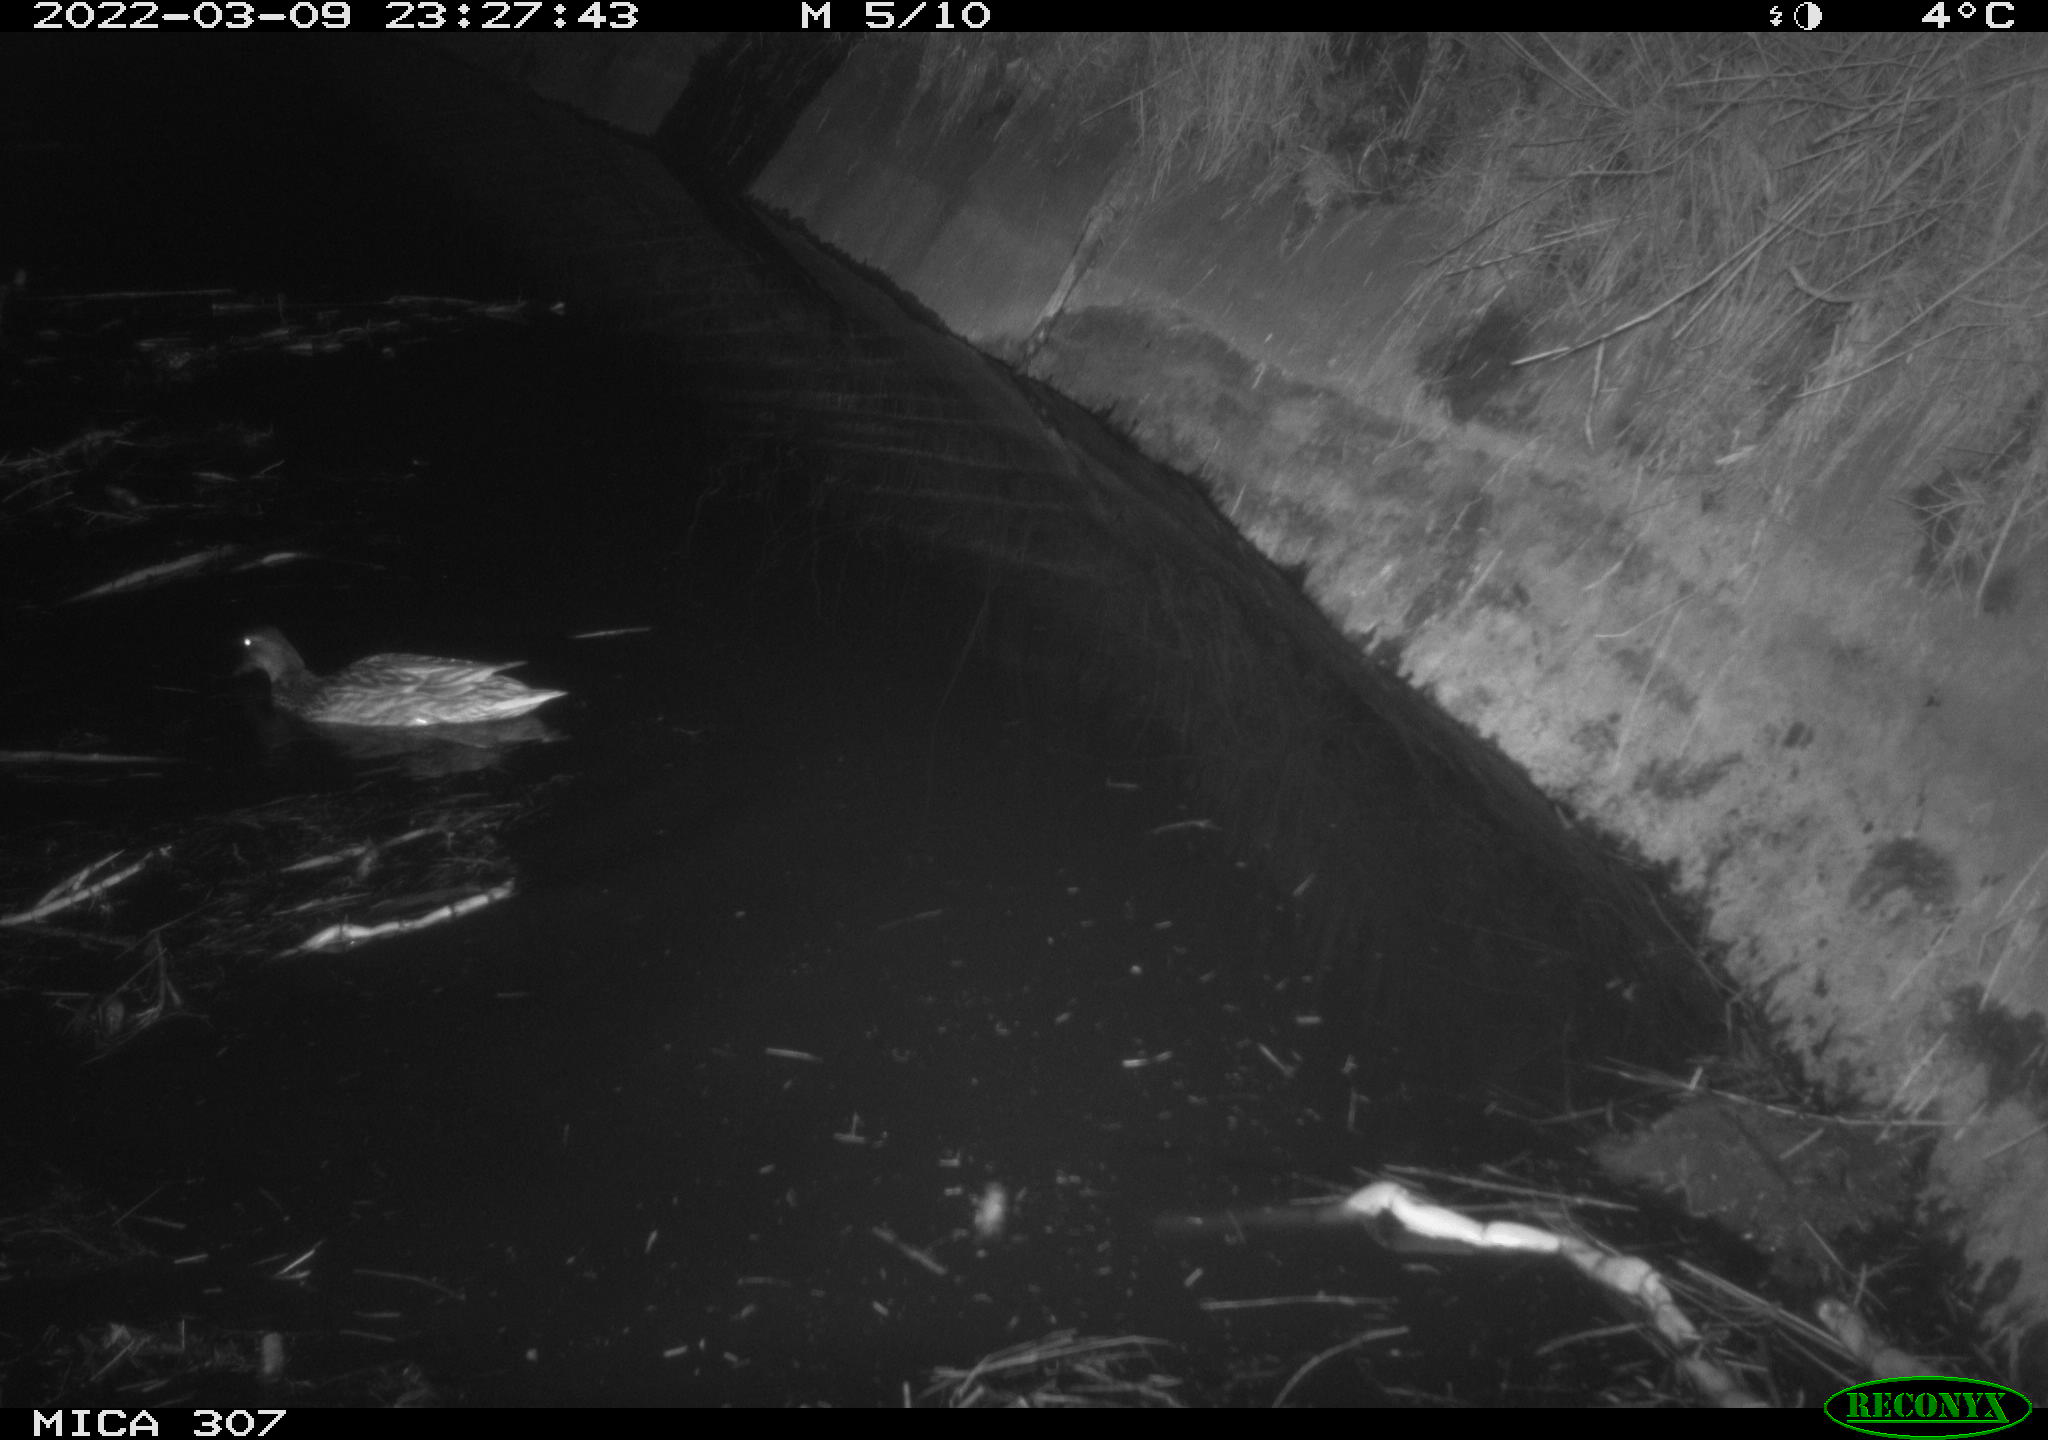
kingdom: Animalia
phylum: Chordata
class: Aves
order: Anseriformes
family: Anatidae
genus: Anas
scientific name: Anas platyrhynchos
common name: Mallard
